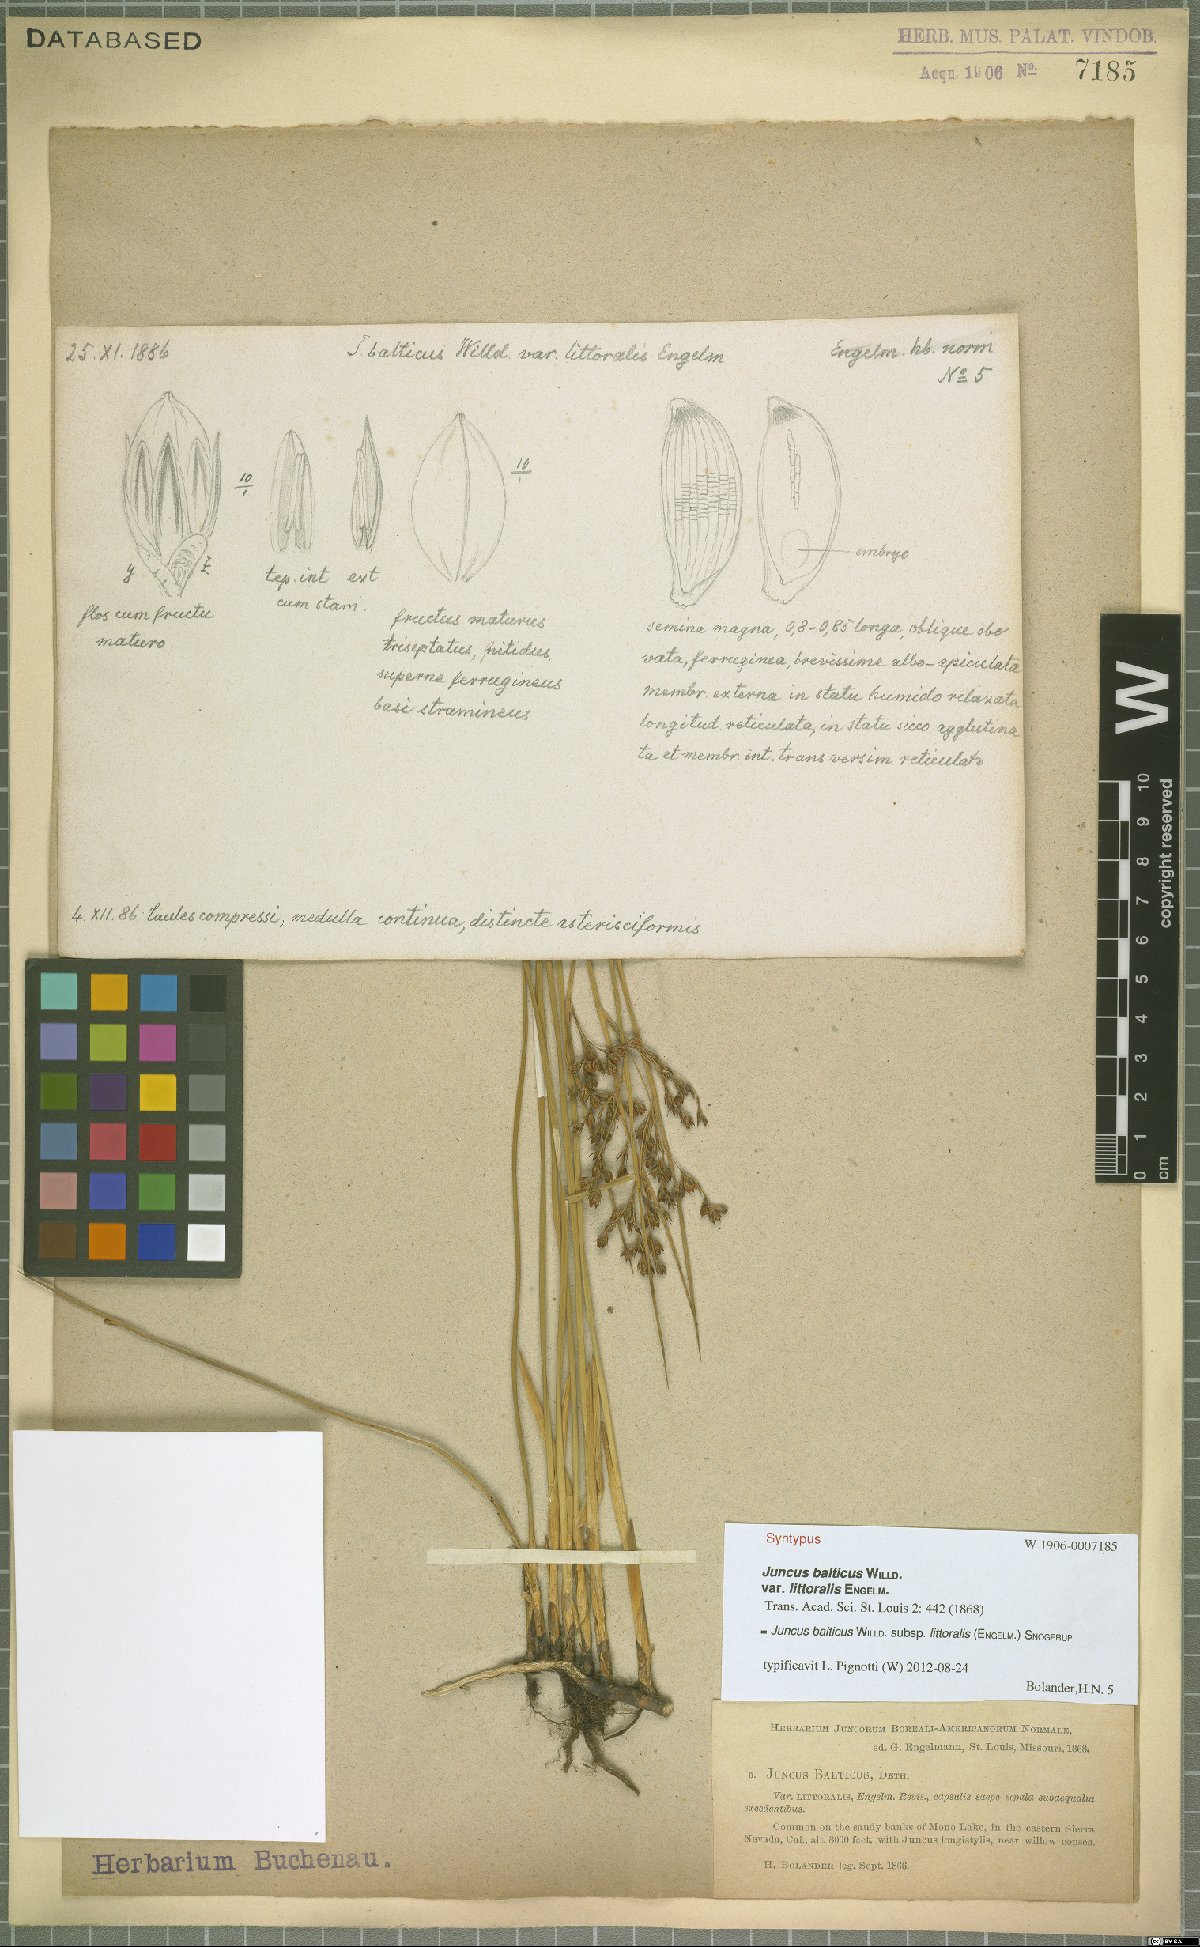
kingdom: Plantae
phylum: Tracheophyta
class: Liliopsida
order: Poales
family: Juncaceae
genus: Juncus
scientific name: Juncus balticus
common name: Baltic rush
